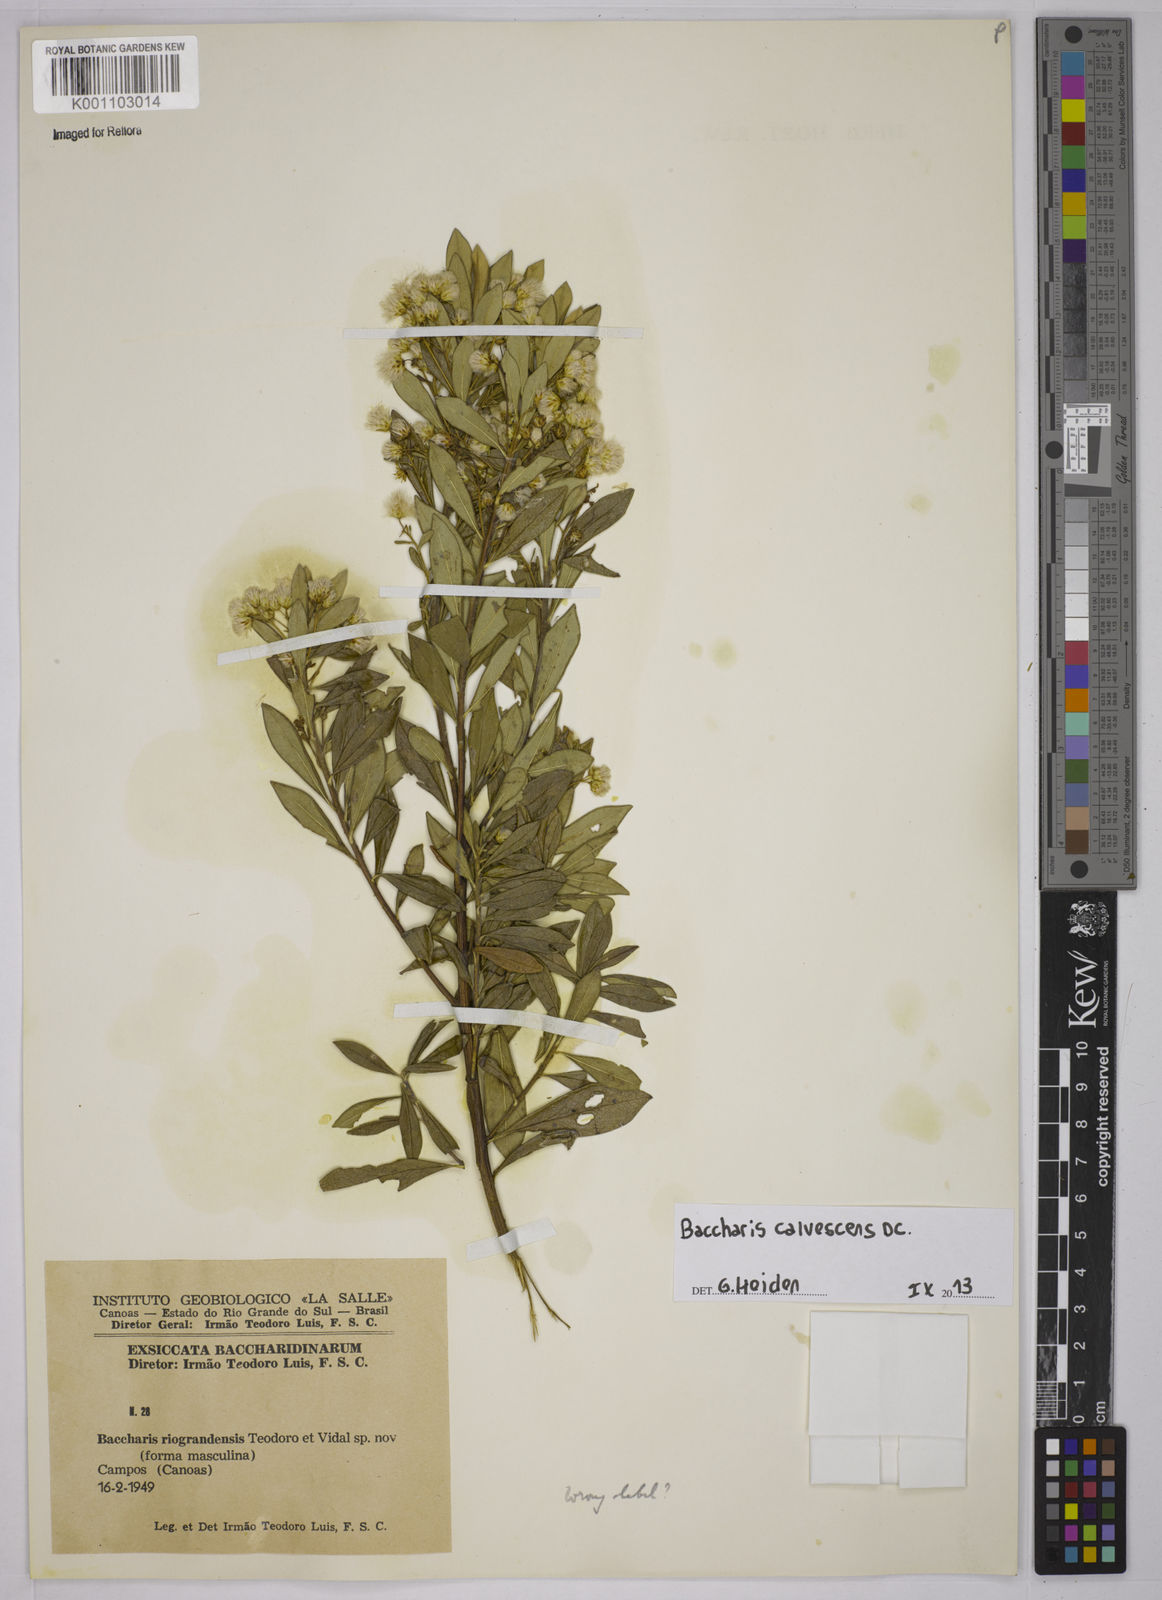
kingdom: Plantae
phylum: Tracheophyta
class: Magnoliopsida
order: Asterales
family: Asteraceae
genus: Baccharis
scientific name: Baccharis calvescens
